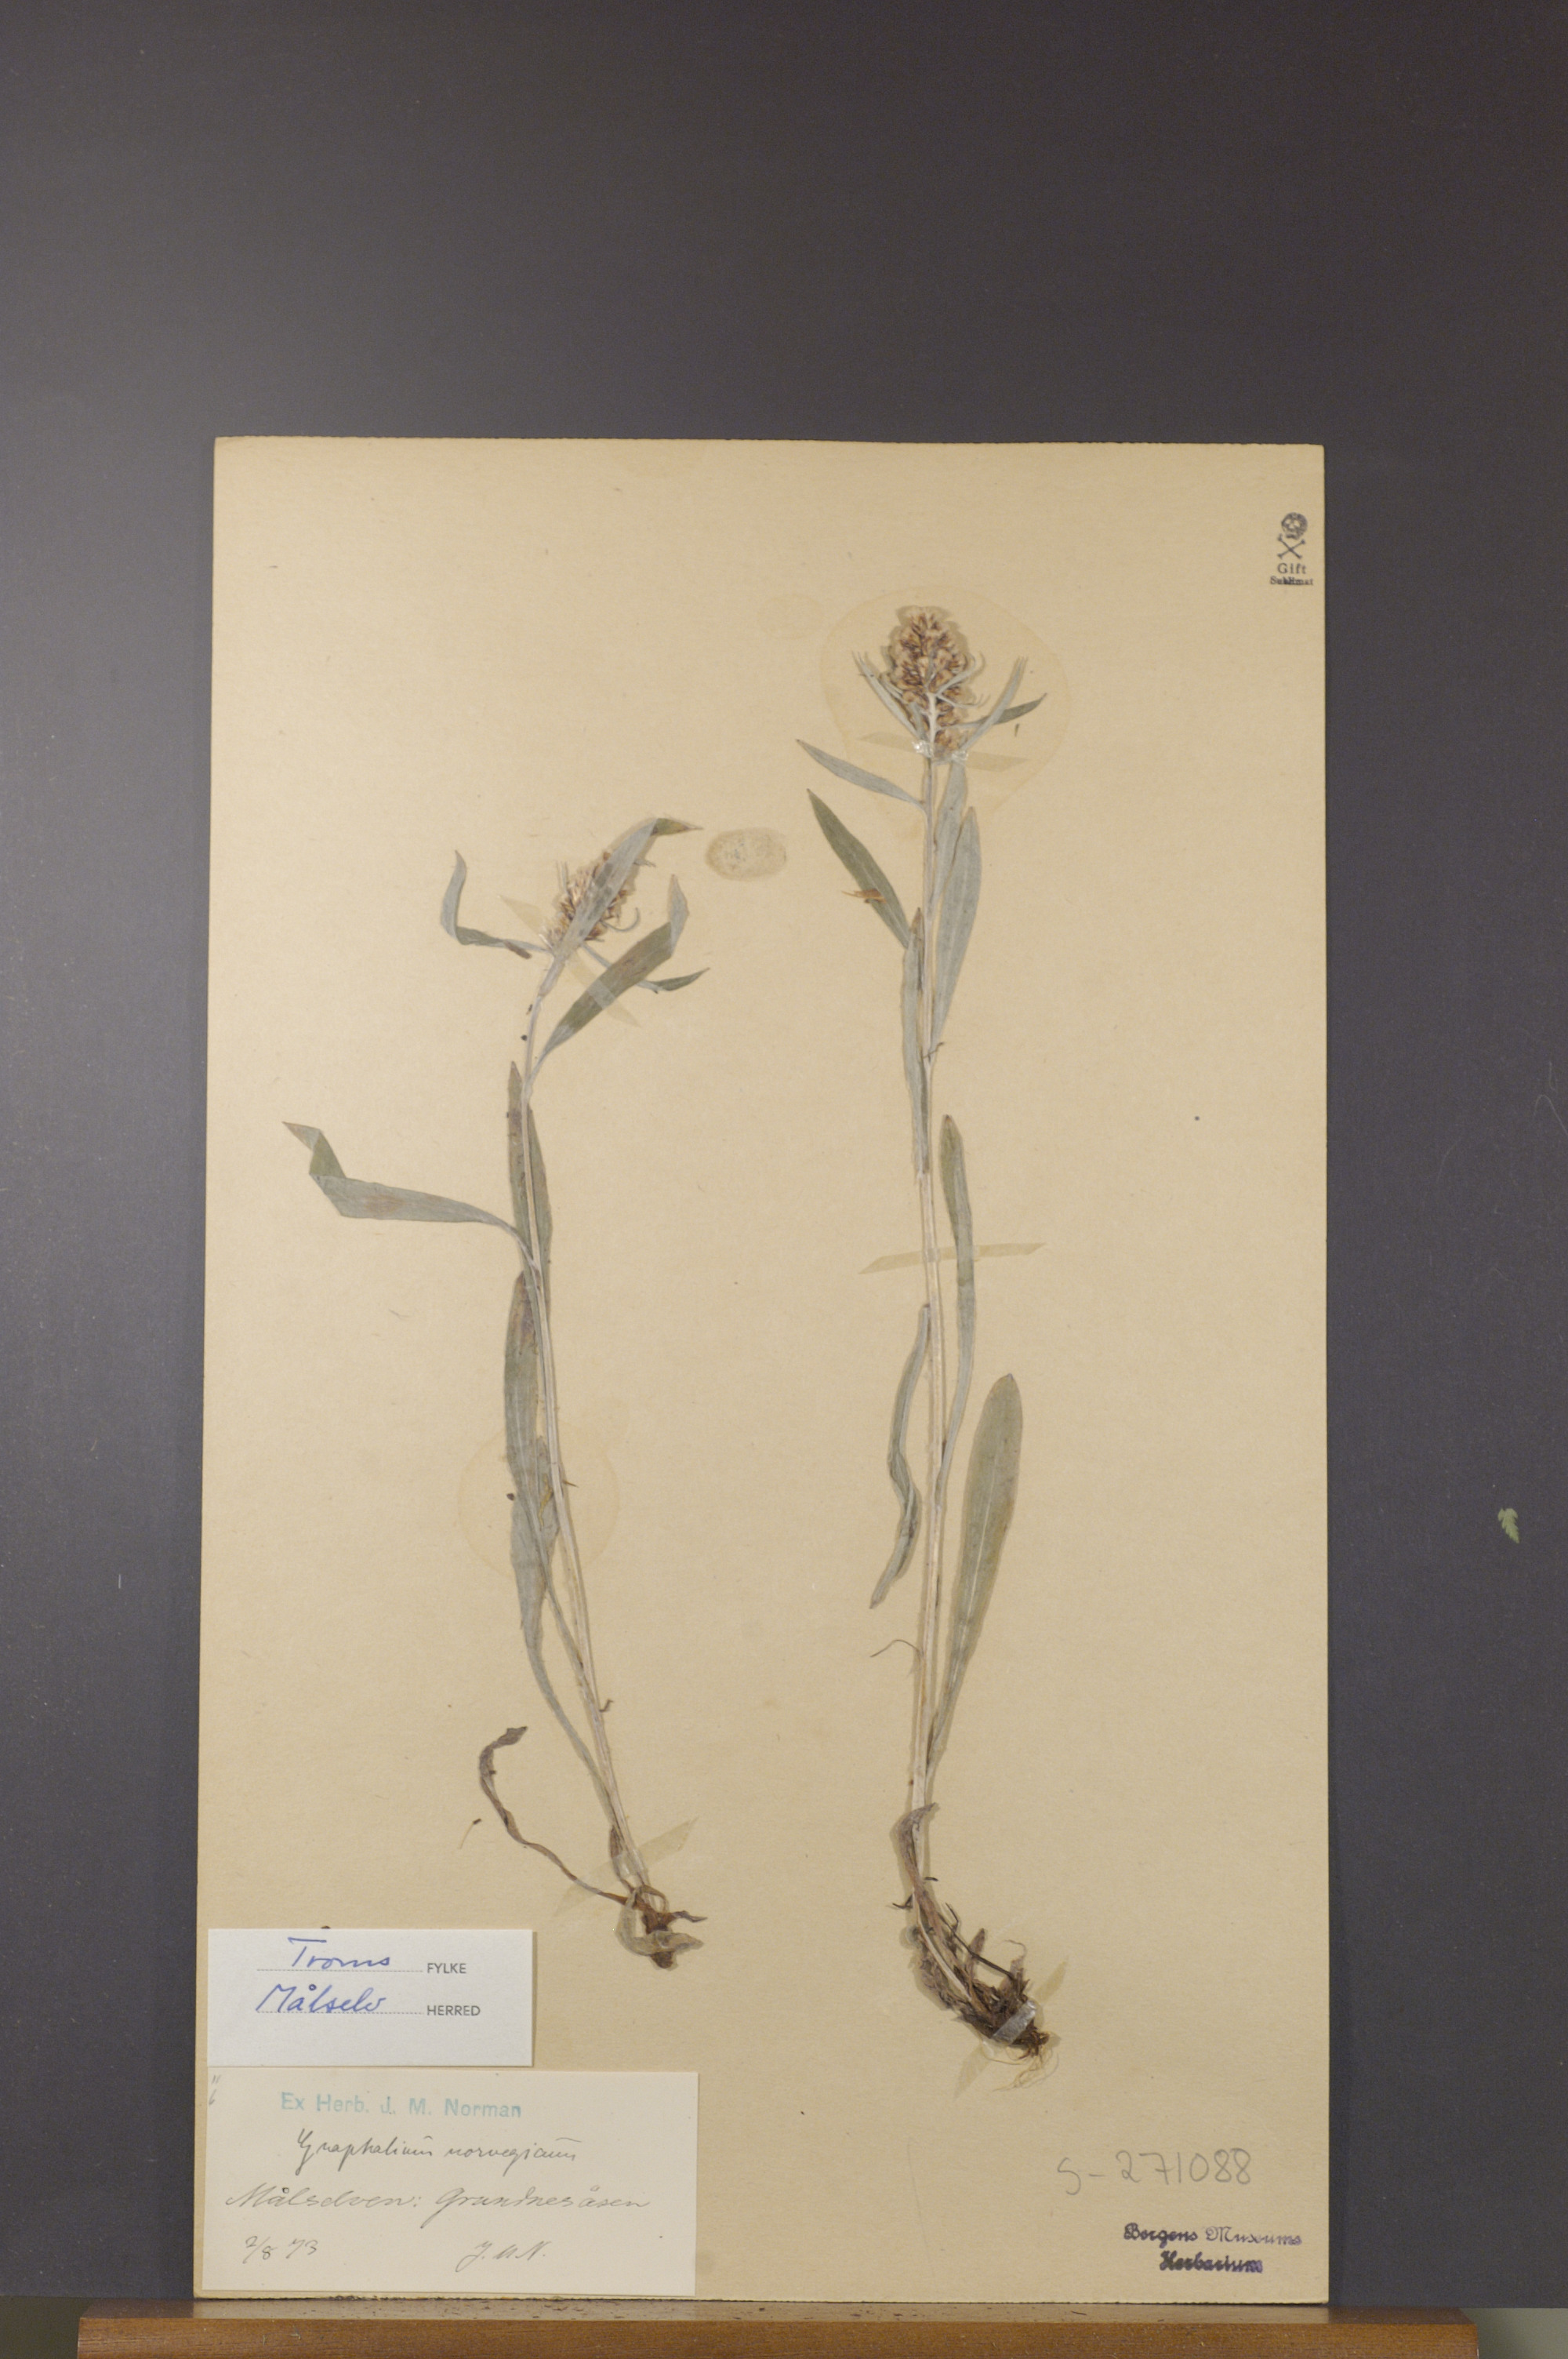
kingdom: Plantae
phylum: Tracheophyta
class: Magnoliopsida
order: Asterales
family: Asteraceae
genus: Omalotheca
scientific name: Omalotheca norvegica
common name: Norwegian arctic-cudweed
